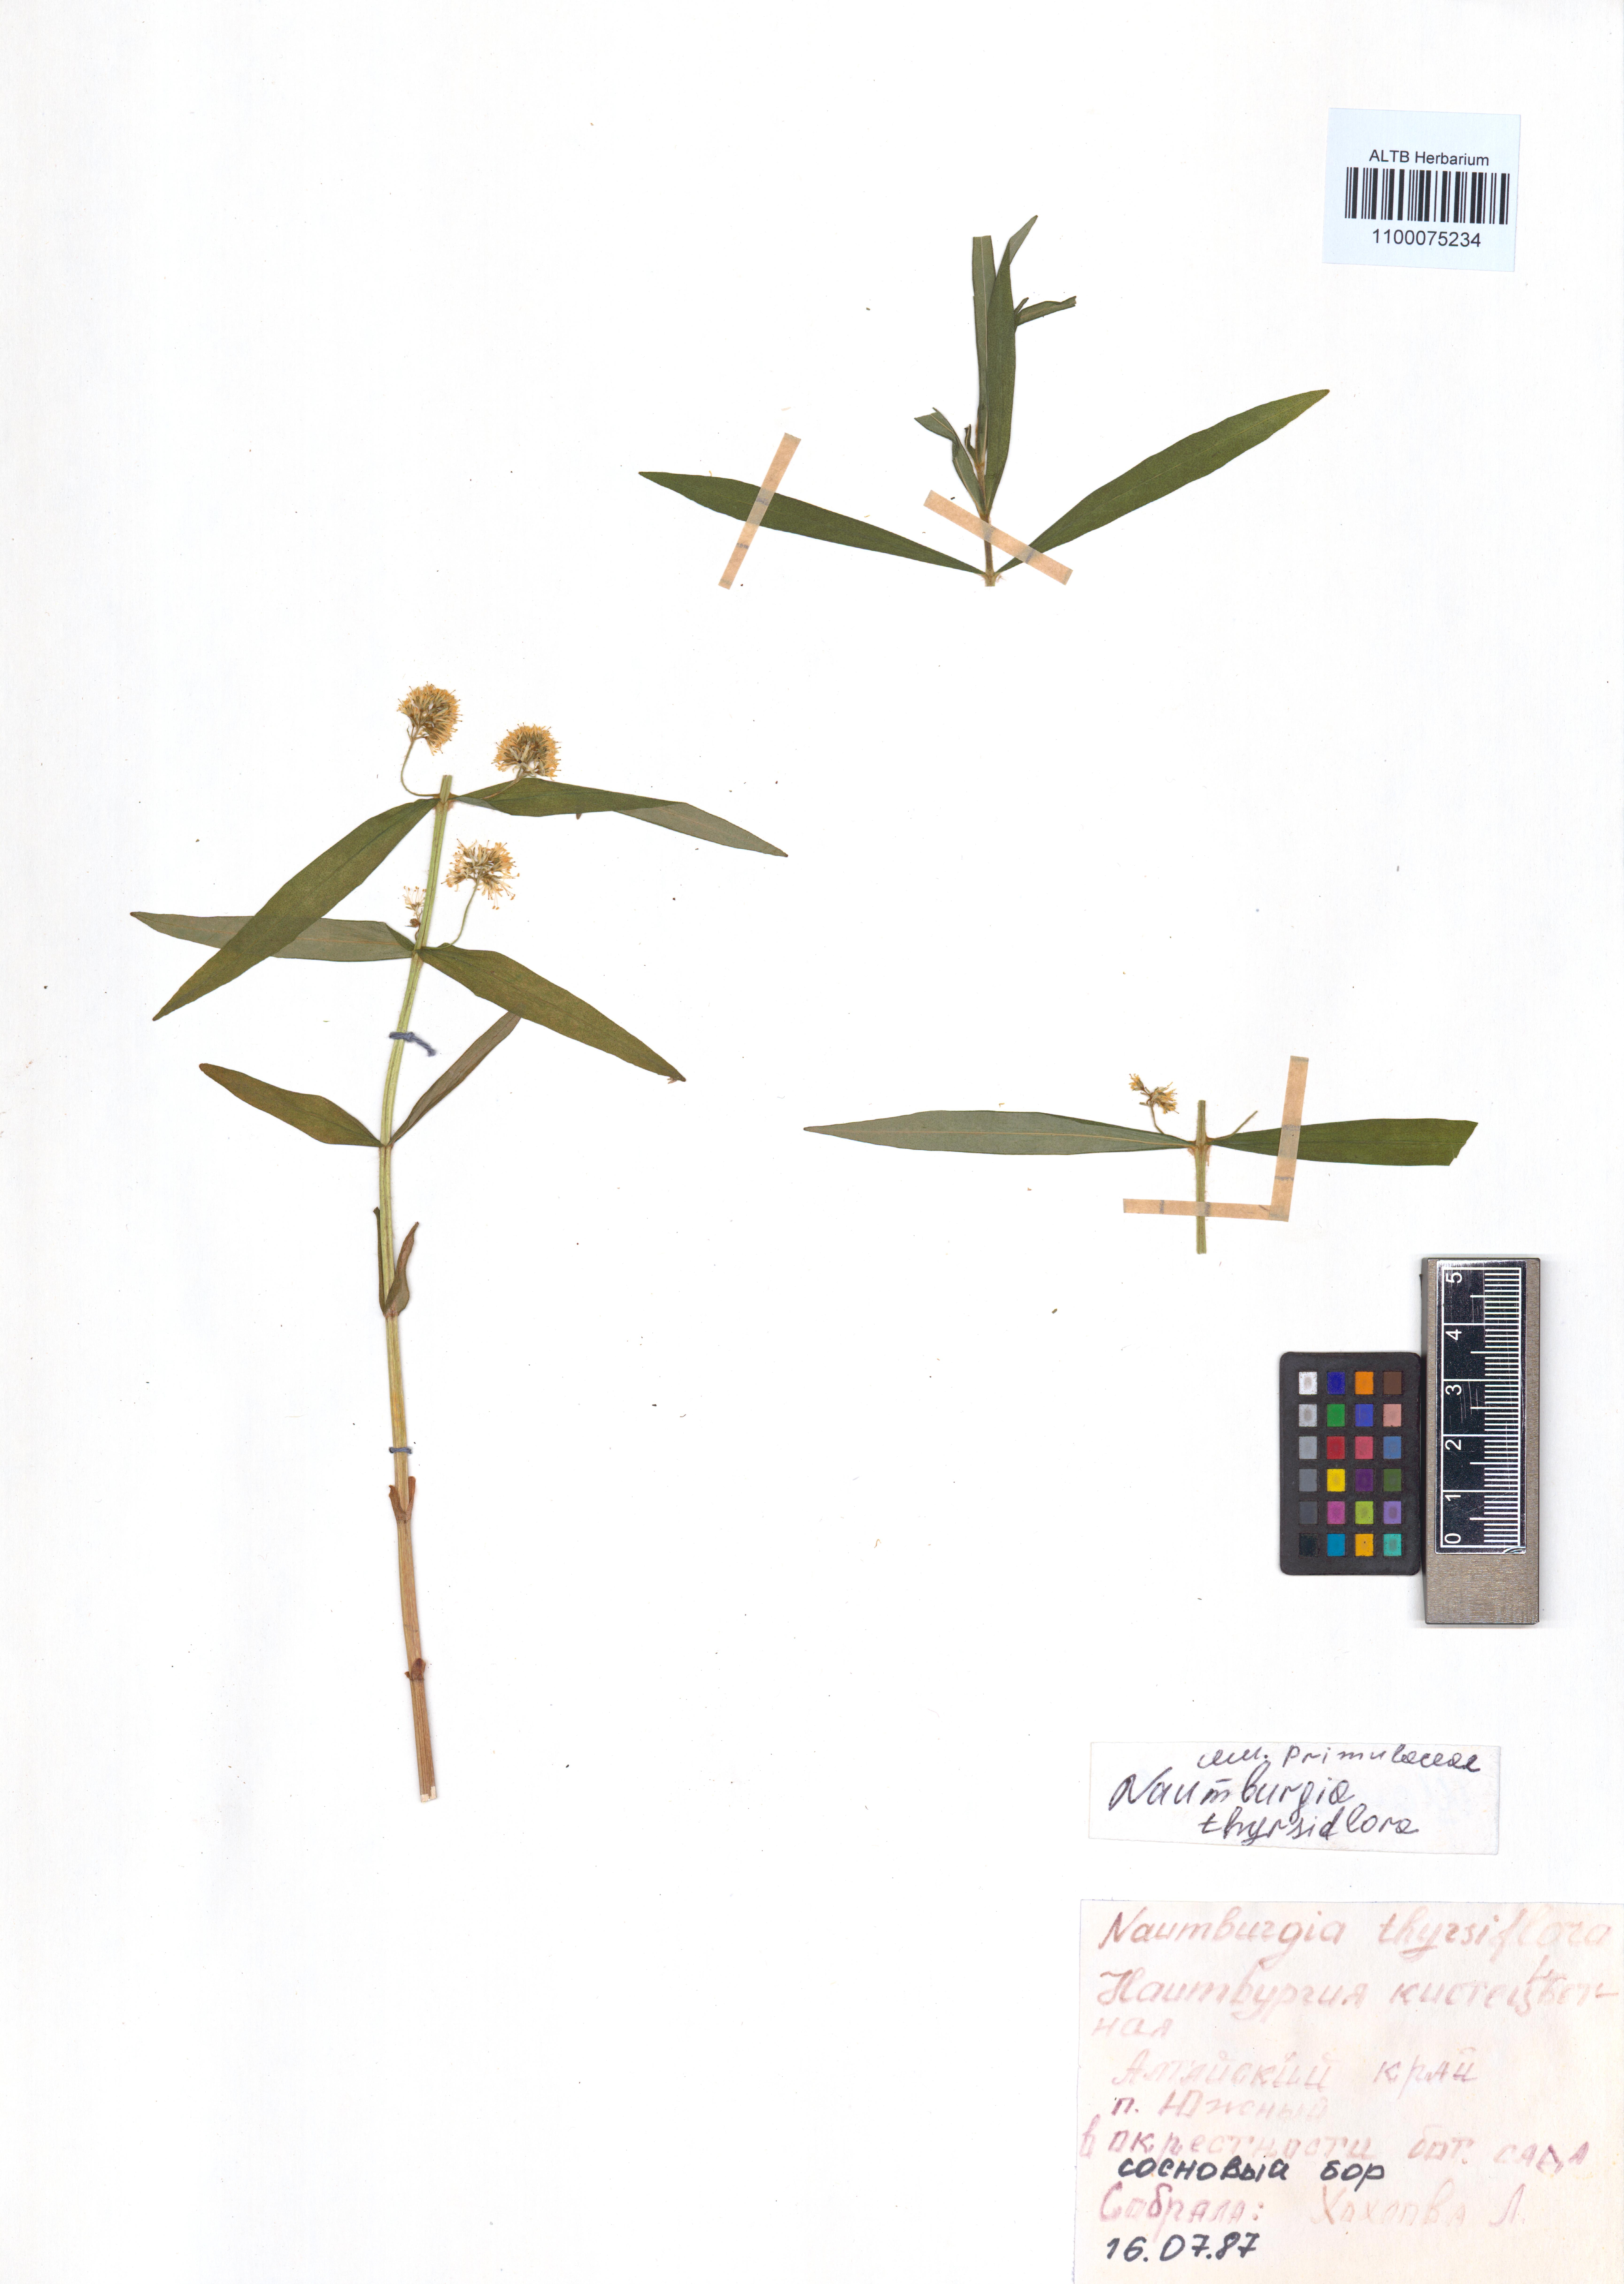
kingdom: Plantae
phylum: Tracheophyta
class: Magnoliopsida
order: Ericales
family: Primulaceae
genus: Lysimachia
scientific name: Lysimachia thyrsiflora
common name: Tufted loosestrife
